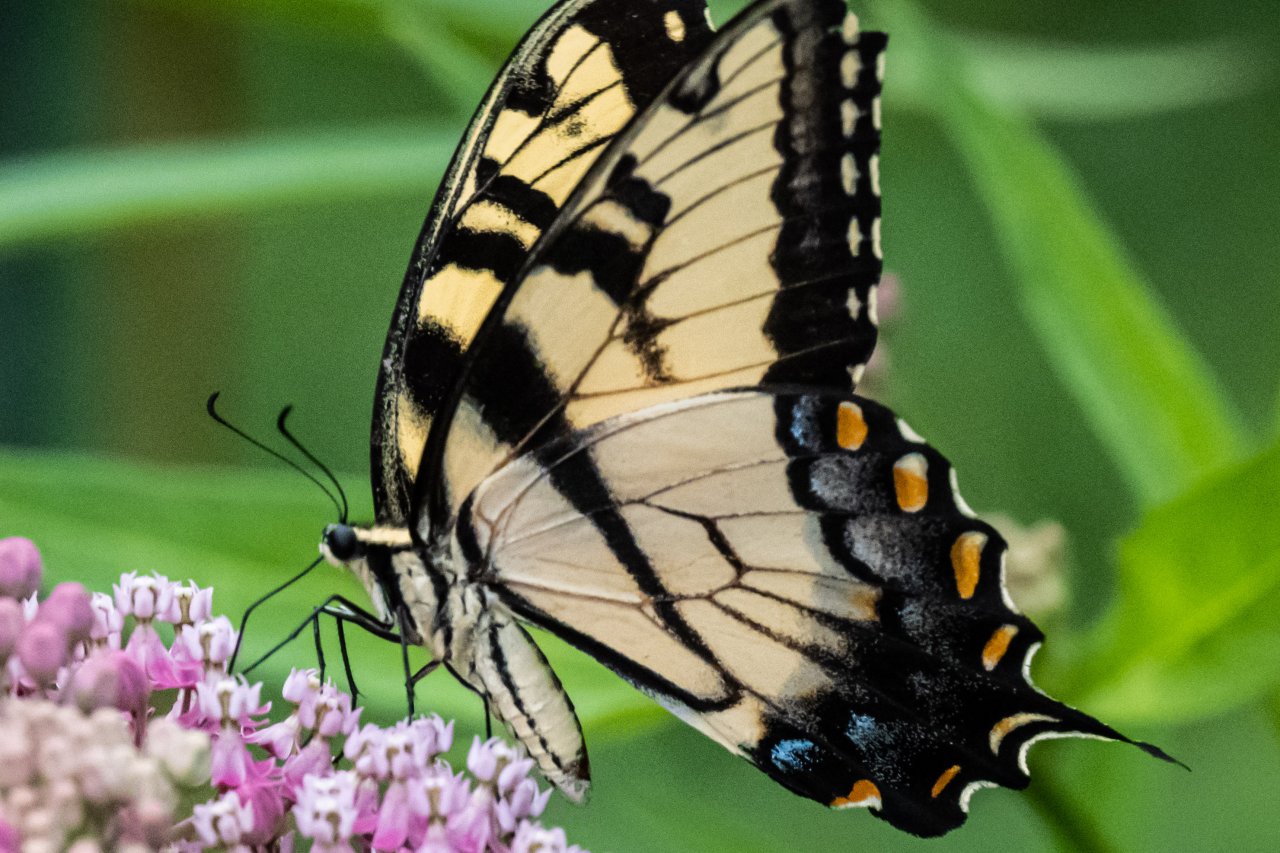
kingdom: Animalia
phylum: Arthropoda
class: Insecta
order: Lepidoptera
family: Papilionidae
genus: Pterourus
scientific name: Pterourus glaucus
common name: Eastern Tiger Swallowtail
